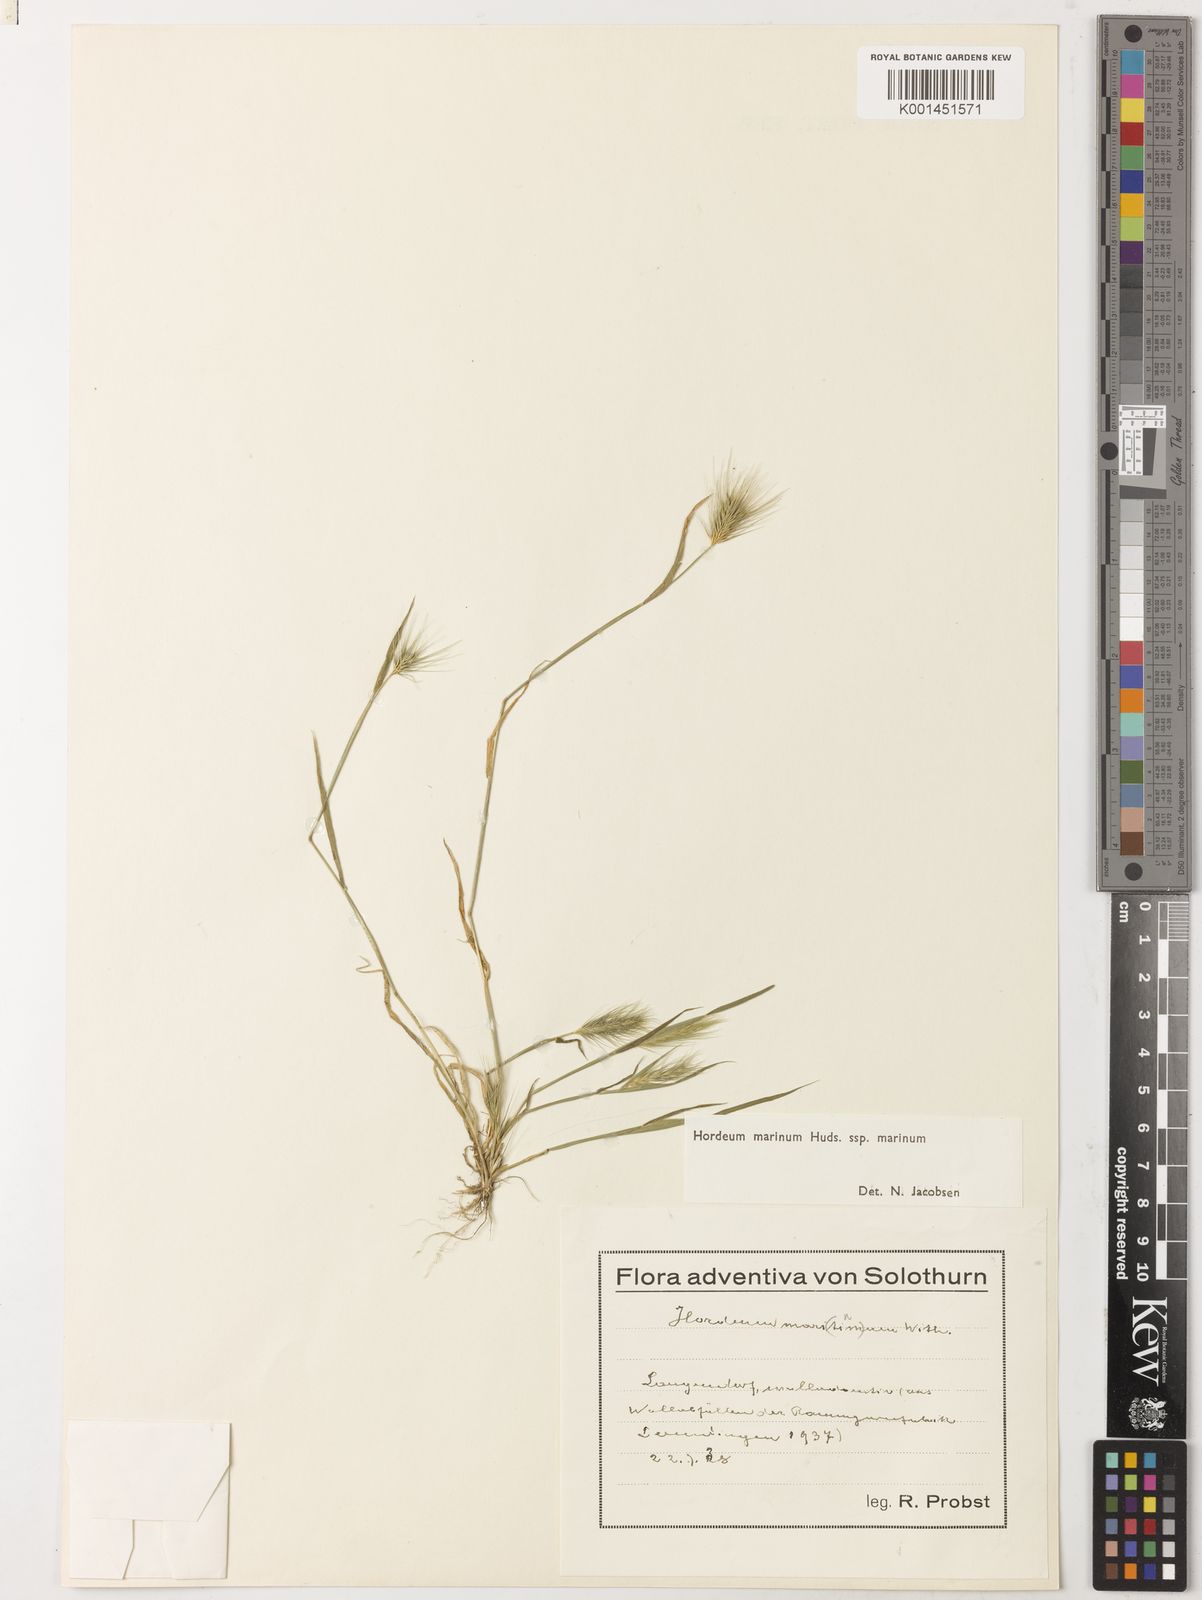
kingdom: Plantae
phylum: Tracheophyta
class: Liliopsida
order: Poales
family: Poaceae
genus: Hordeum
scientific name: Hordeum marinum
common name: Sea barley
